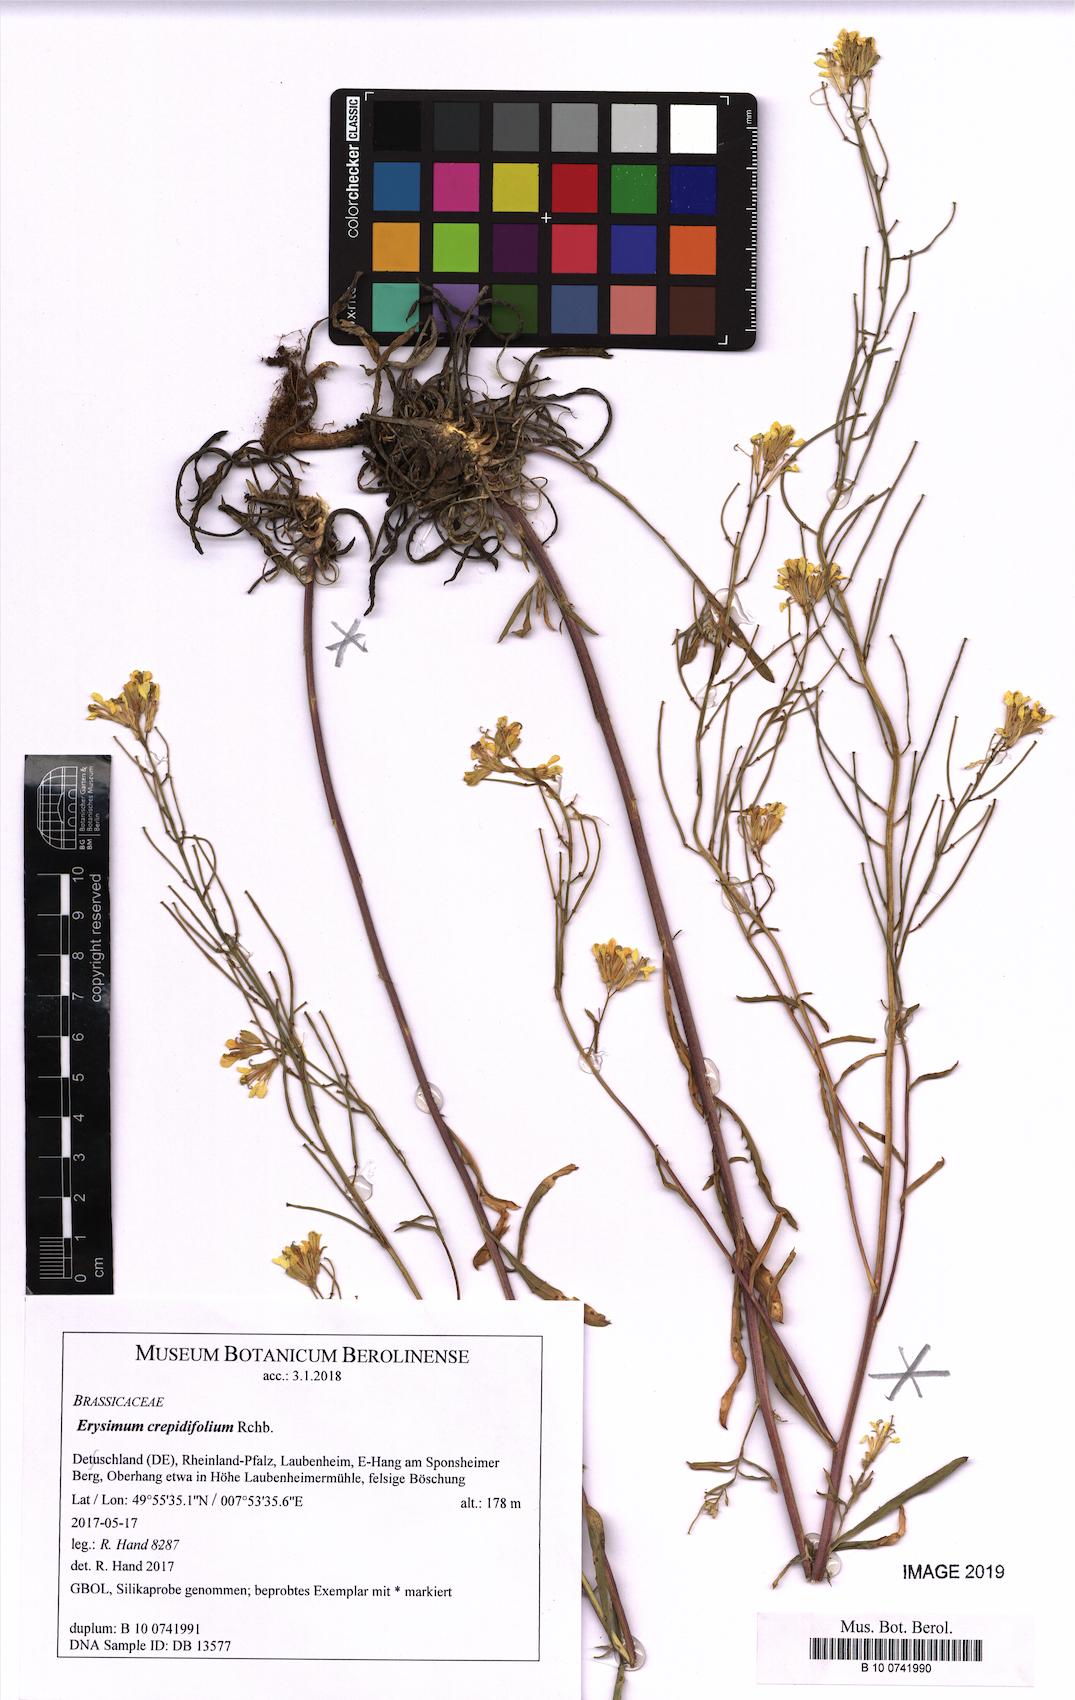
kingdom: Plantae
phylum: Tracheophyta
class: Magnoliopsida
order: Brassicales
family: Brassicaceae
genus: Erysimum
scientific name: Erysimum crepidifolium
